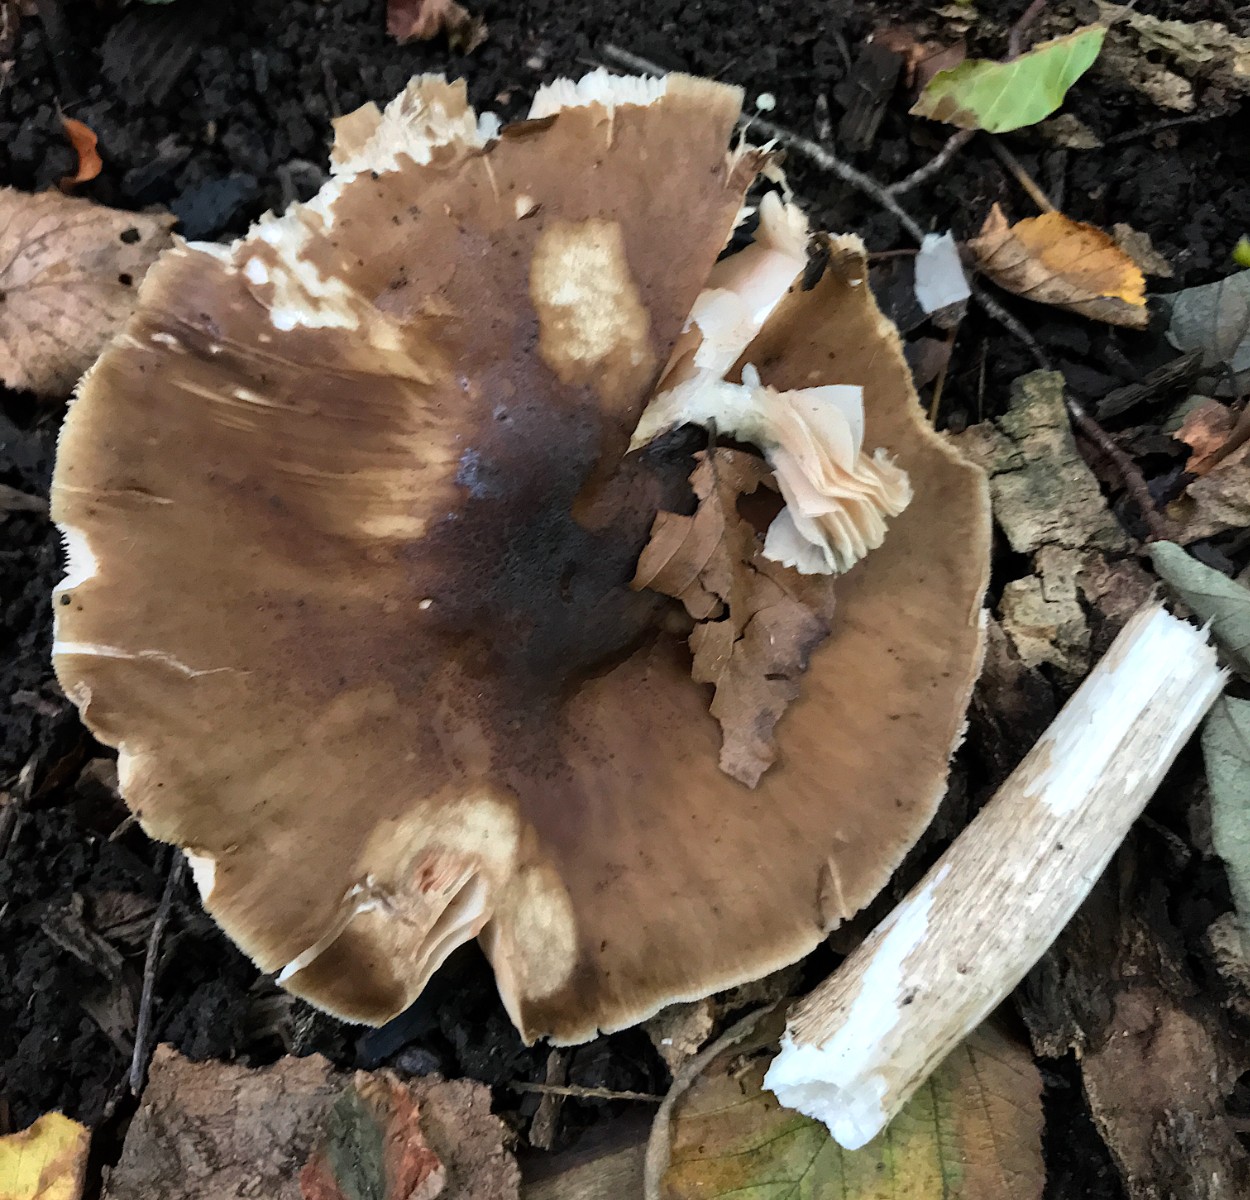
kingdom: Fungi
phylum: Basidiomycota
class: Agaricomycetes
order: Agaricales
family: Pluteaceae
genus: Pluteus
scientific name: Pluteus cervinus
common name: sodfarvet skærmhat
